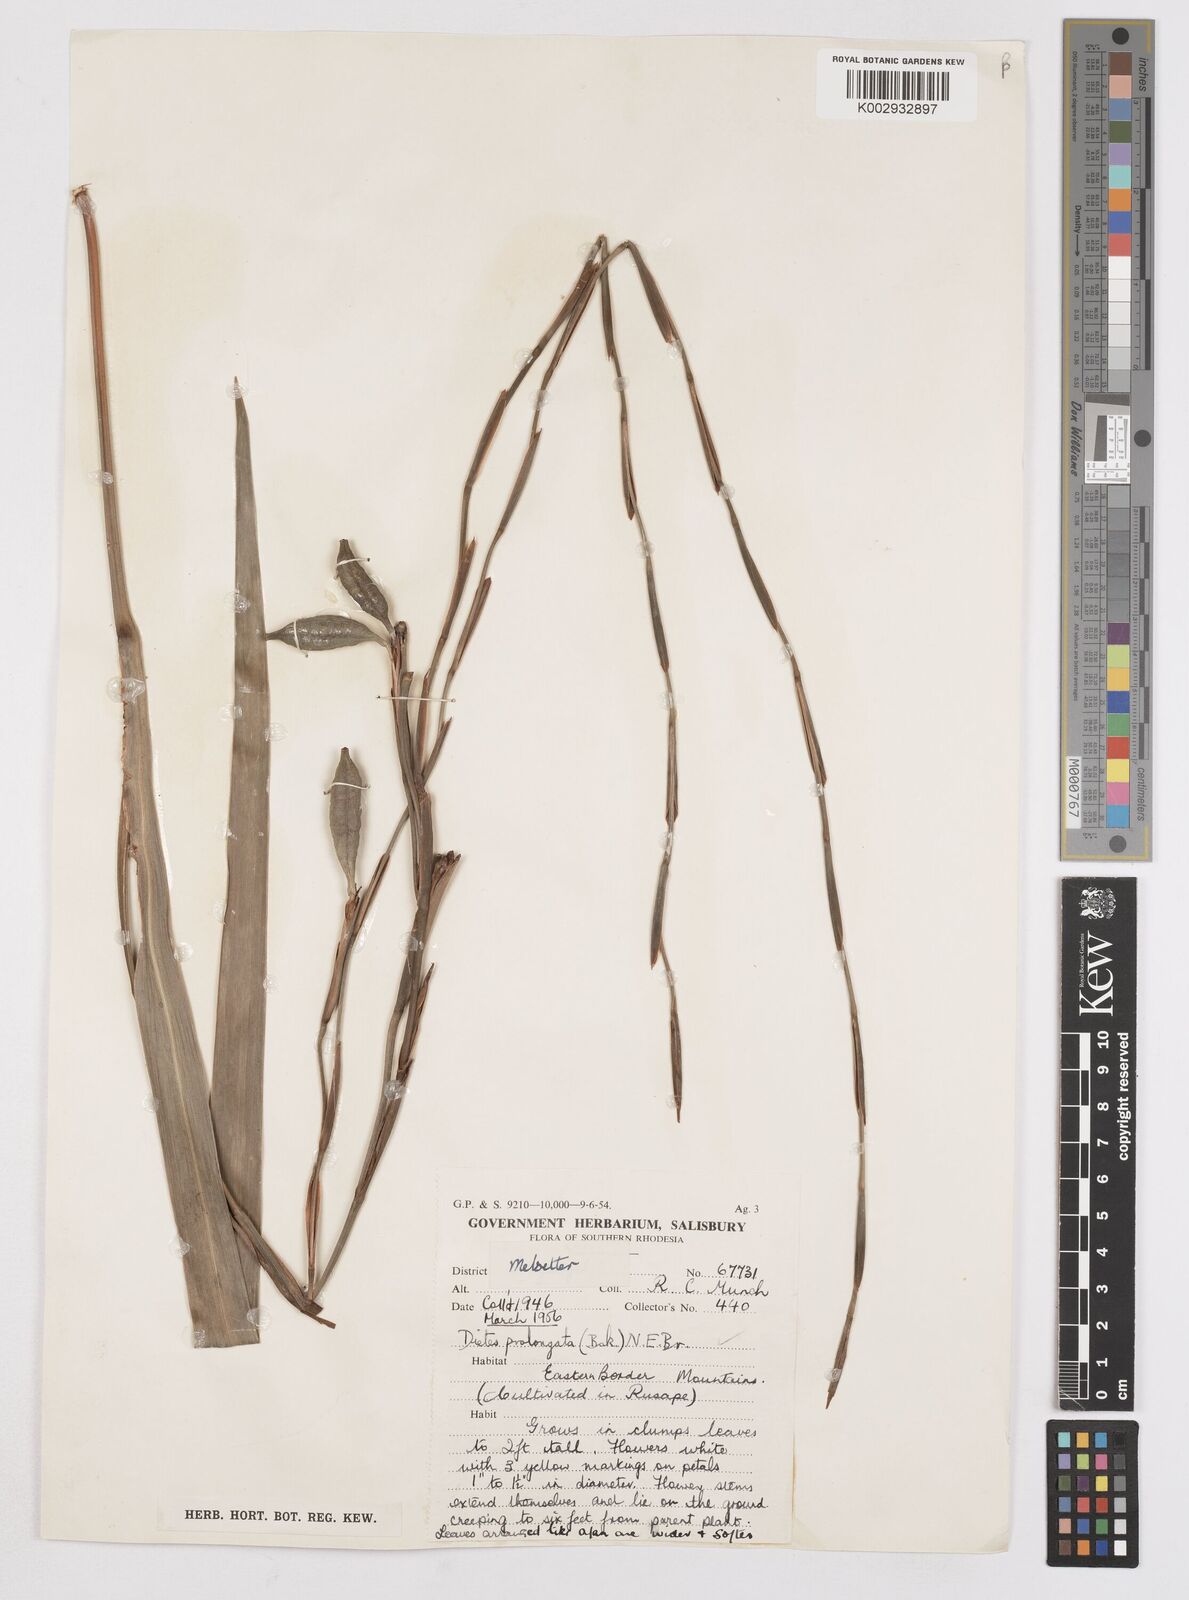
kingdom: Plantae
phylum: Tracheophyta
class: Liliopsida
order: Asparagales
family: Iridaceae
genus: Dietes
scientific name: Dietes iridioides
